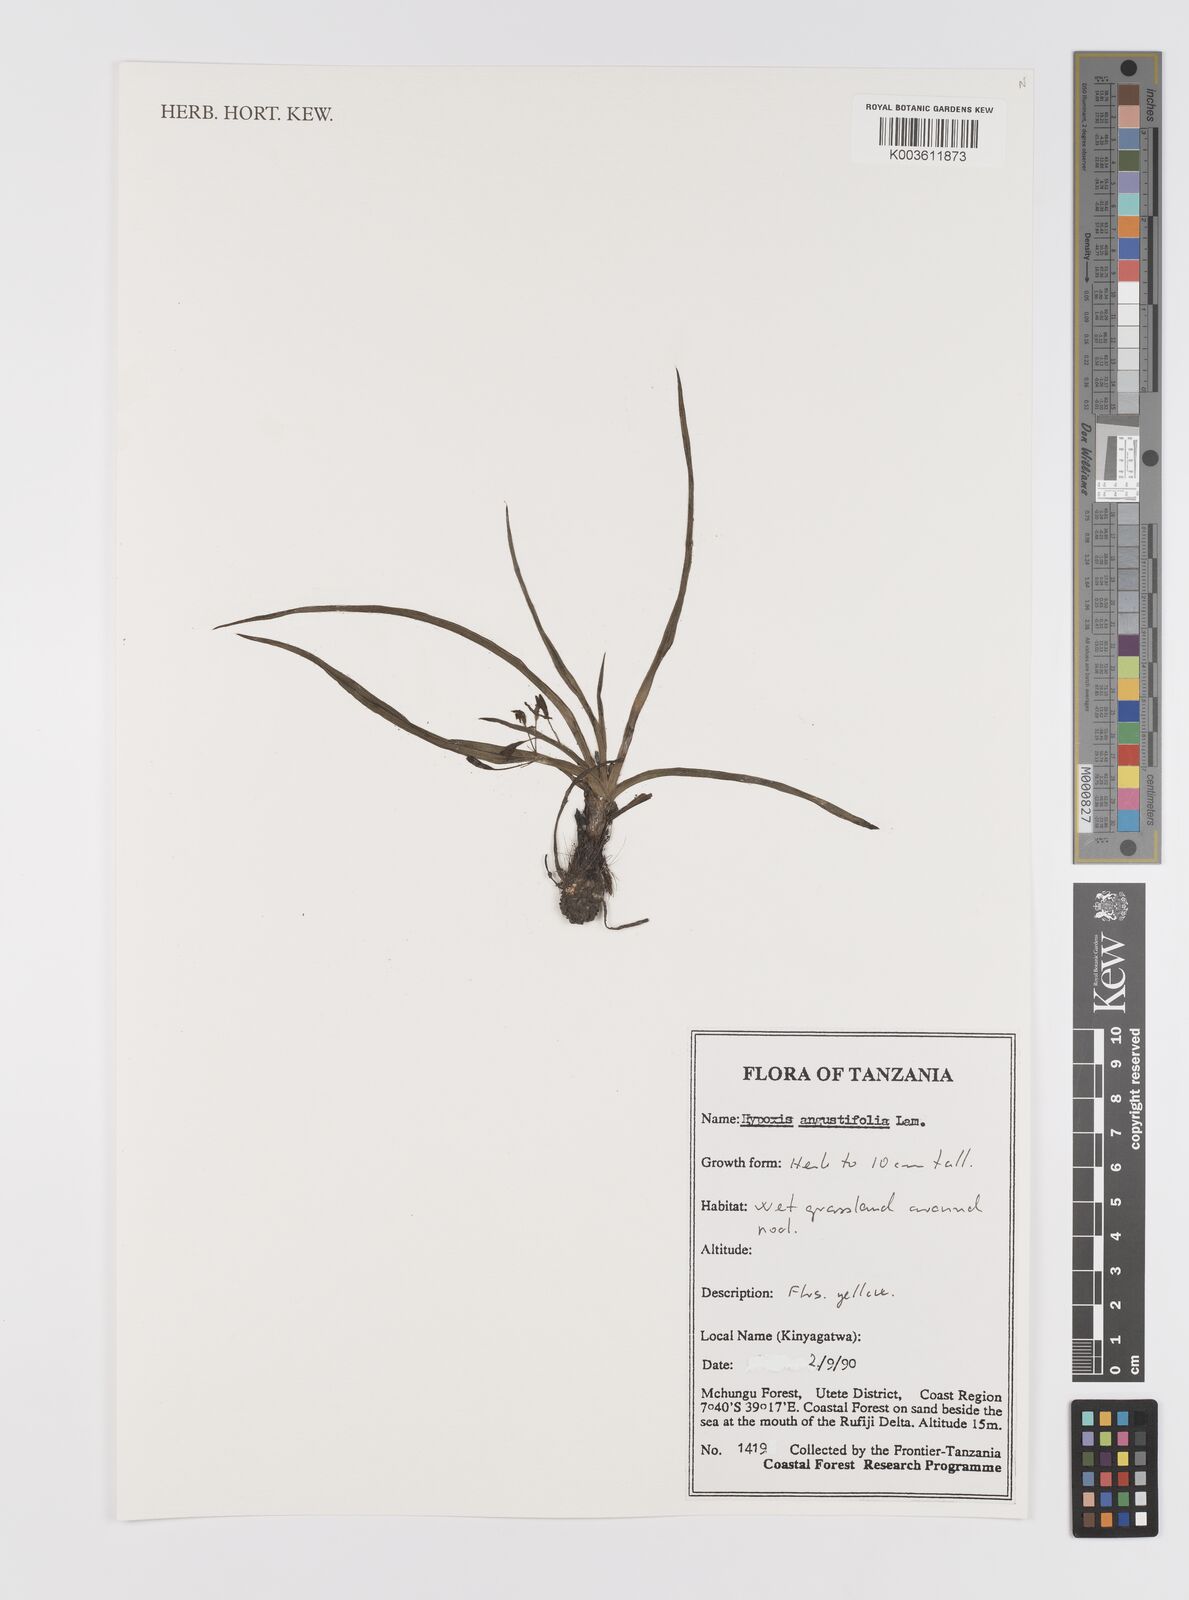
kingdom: Plantae
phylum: Tracheophyta
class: Liliopsida
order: Asparagales
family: Hypoxidaceae
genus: Hypoxis
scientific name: Hypoxis angustifolia
